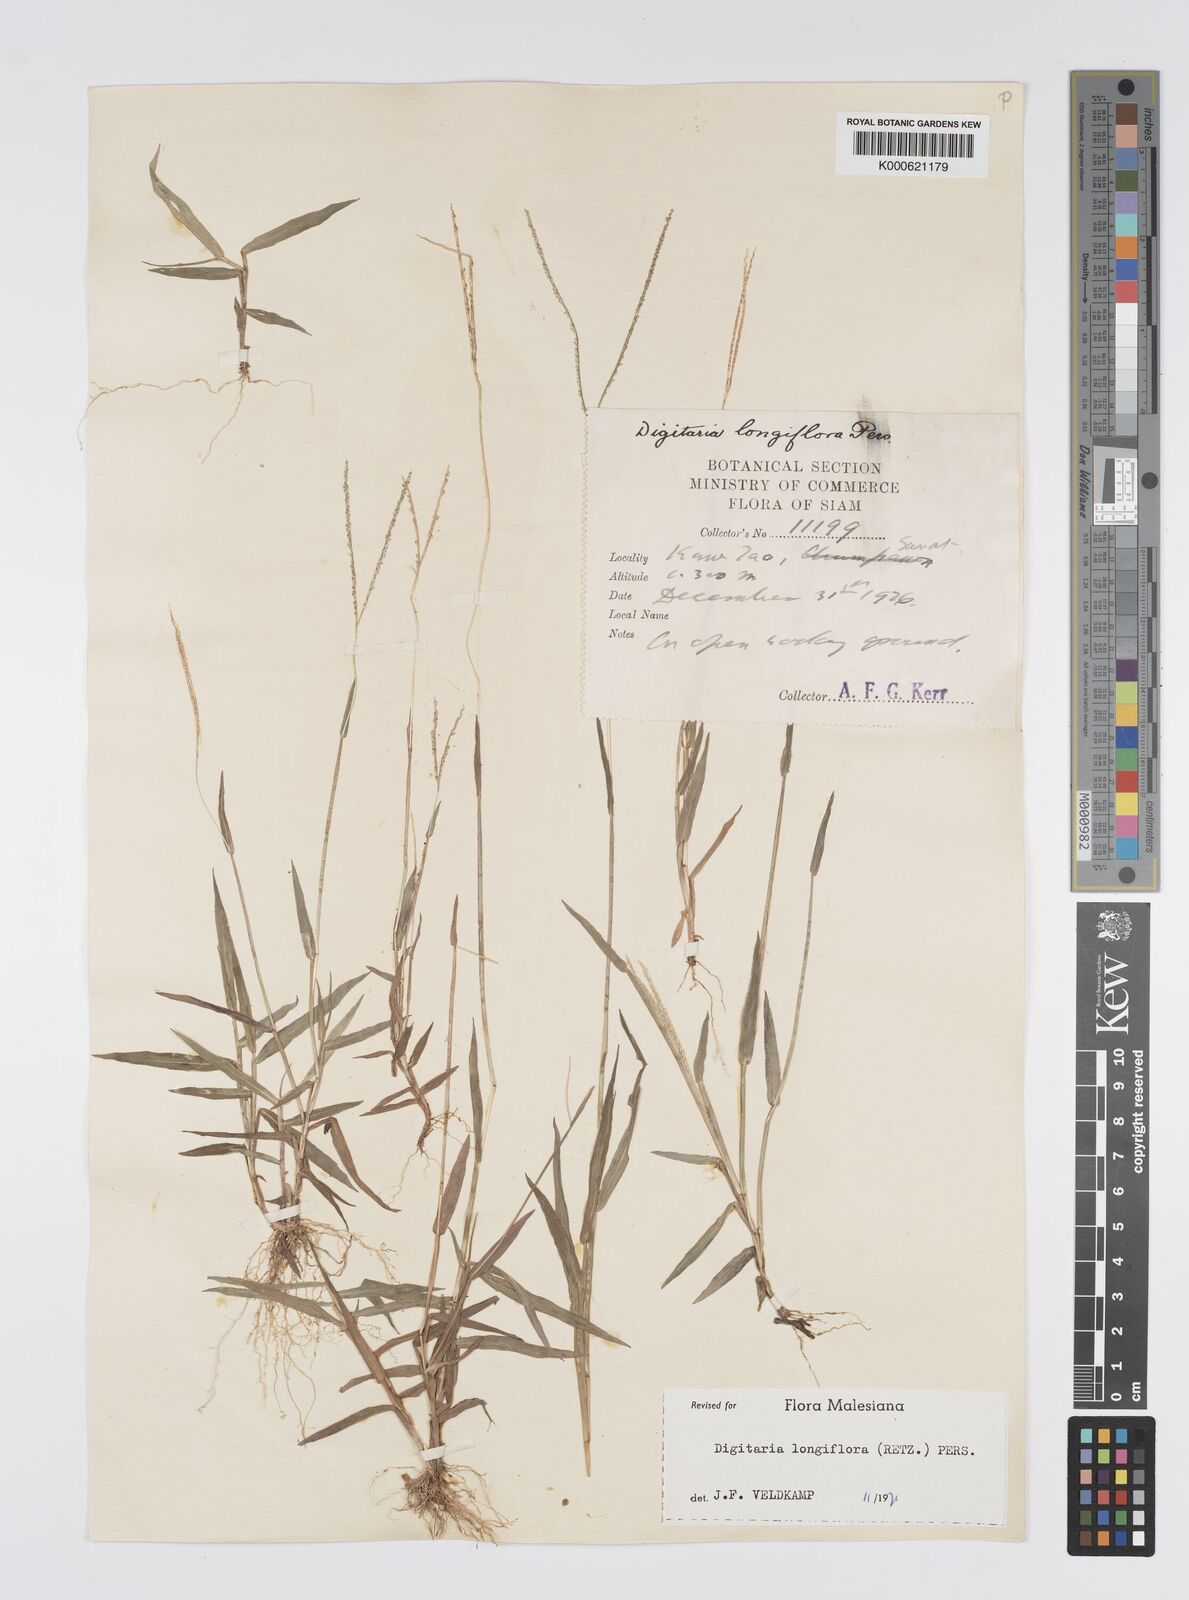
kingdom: Plantae
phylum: Tracheophyta
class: Liliopsida
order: Poales
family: Poaceae
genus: Digitaria
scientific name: Digitaria longiflora
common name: Wire crabgrass
